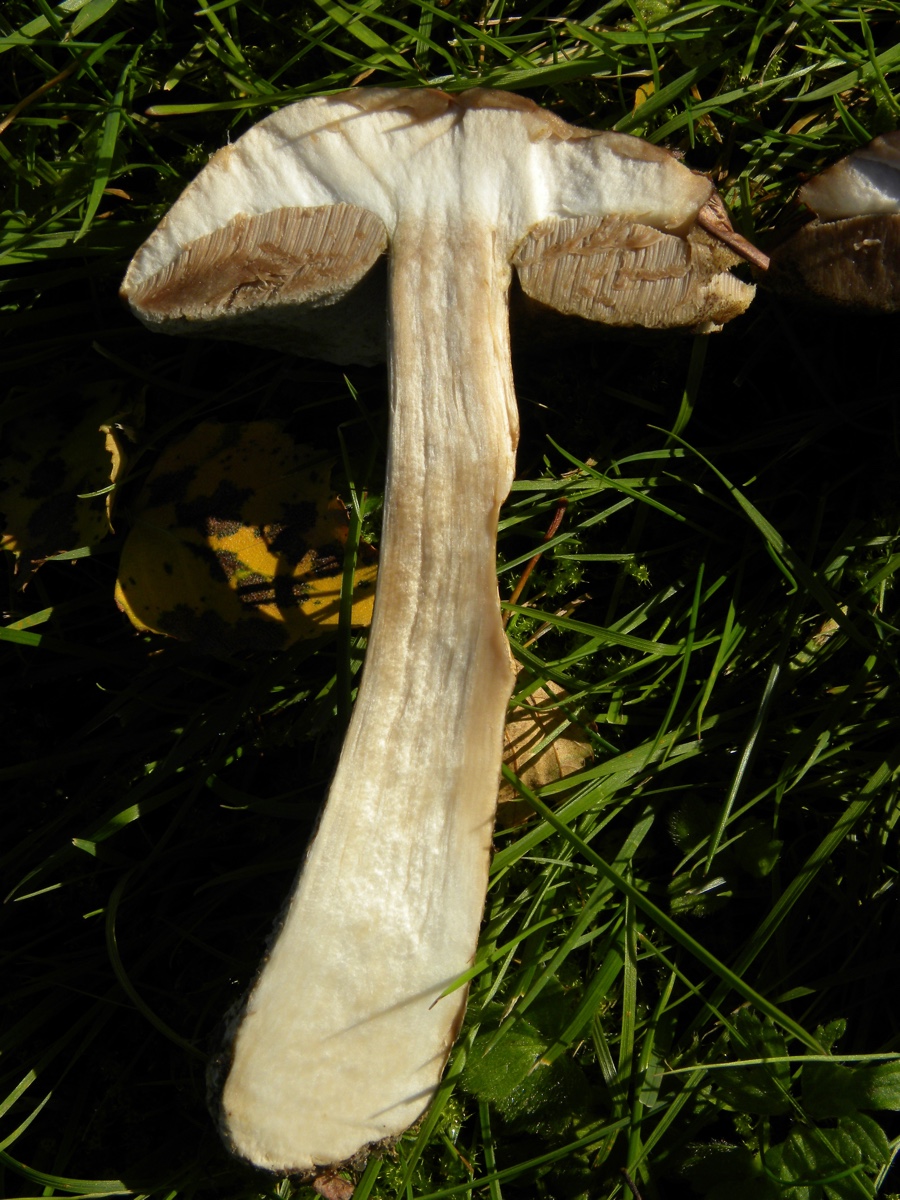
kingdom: Fungi
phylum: Basidiomycota
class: Agaricomycetes
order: Boletales
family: Boletaceae
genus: Leccinum
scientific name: Leccinum scabrum
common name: brun skælrørhat
